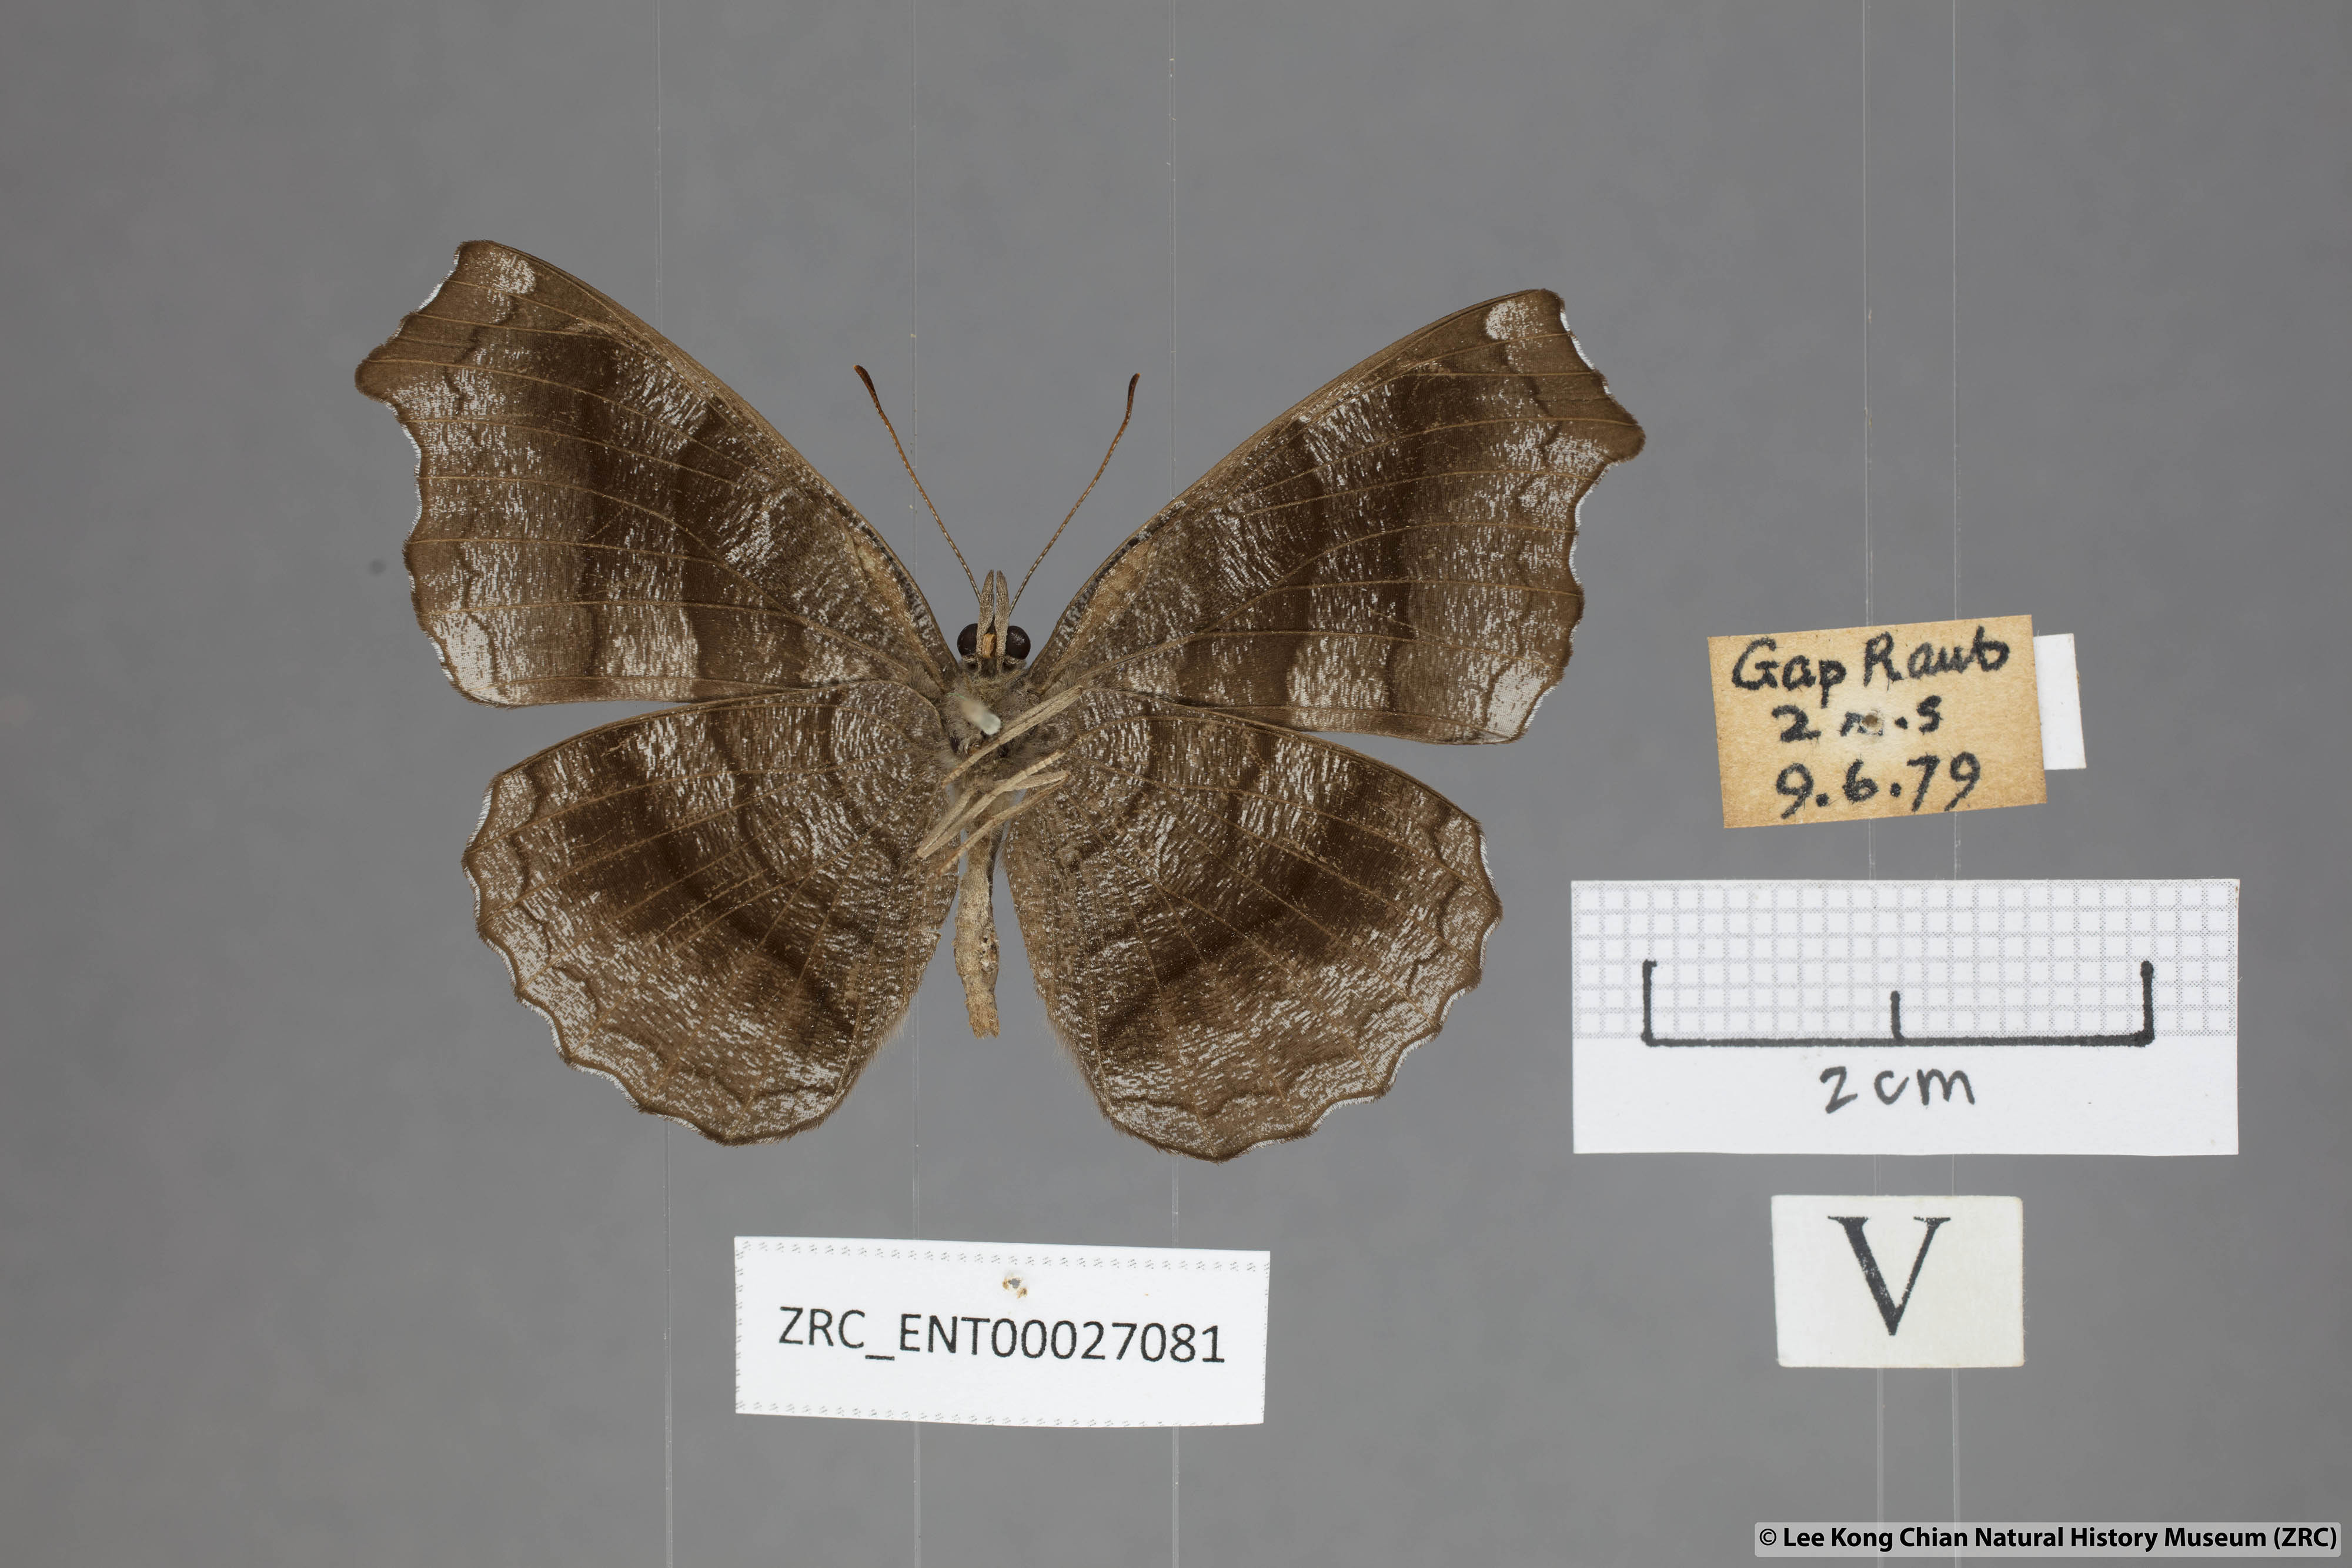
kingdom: Animalia
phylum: Arthropoda
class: Insecta
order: Lepidoptera
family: Nymphalidae
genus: Laringa
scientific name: Laringa castelnaui
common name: Blue dandy
